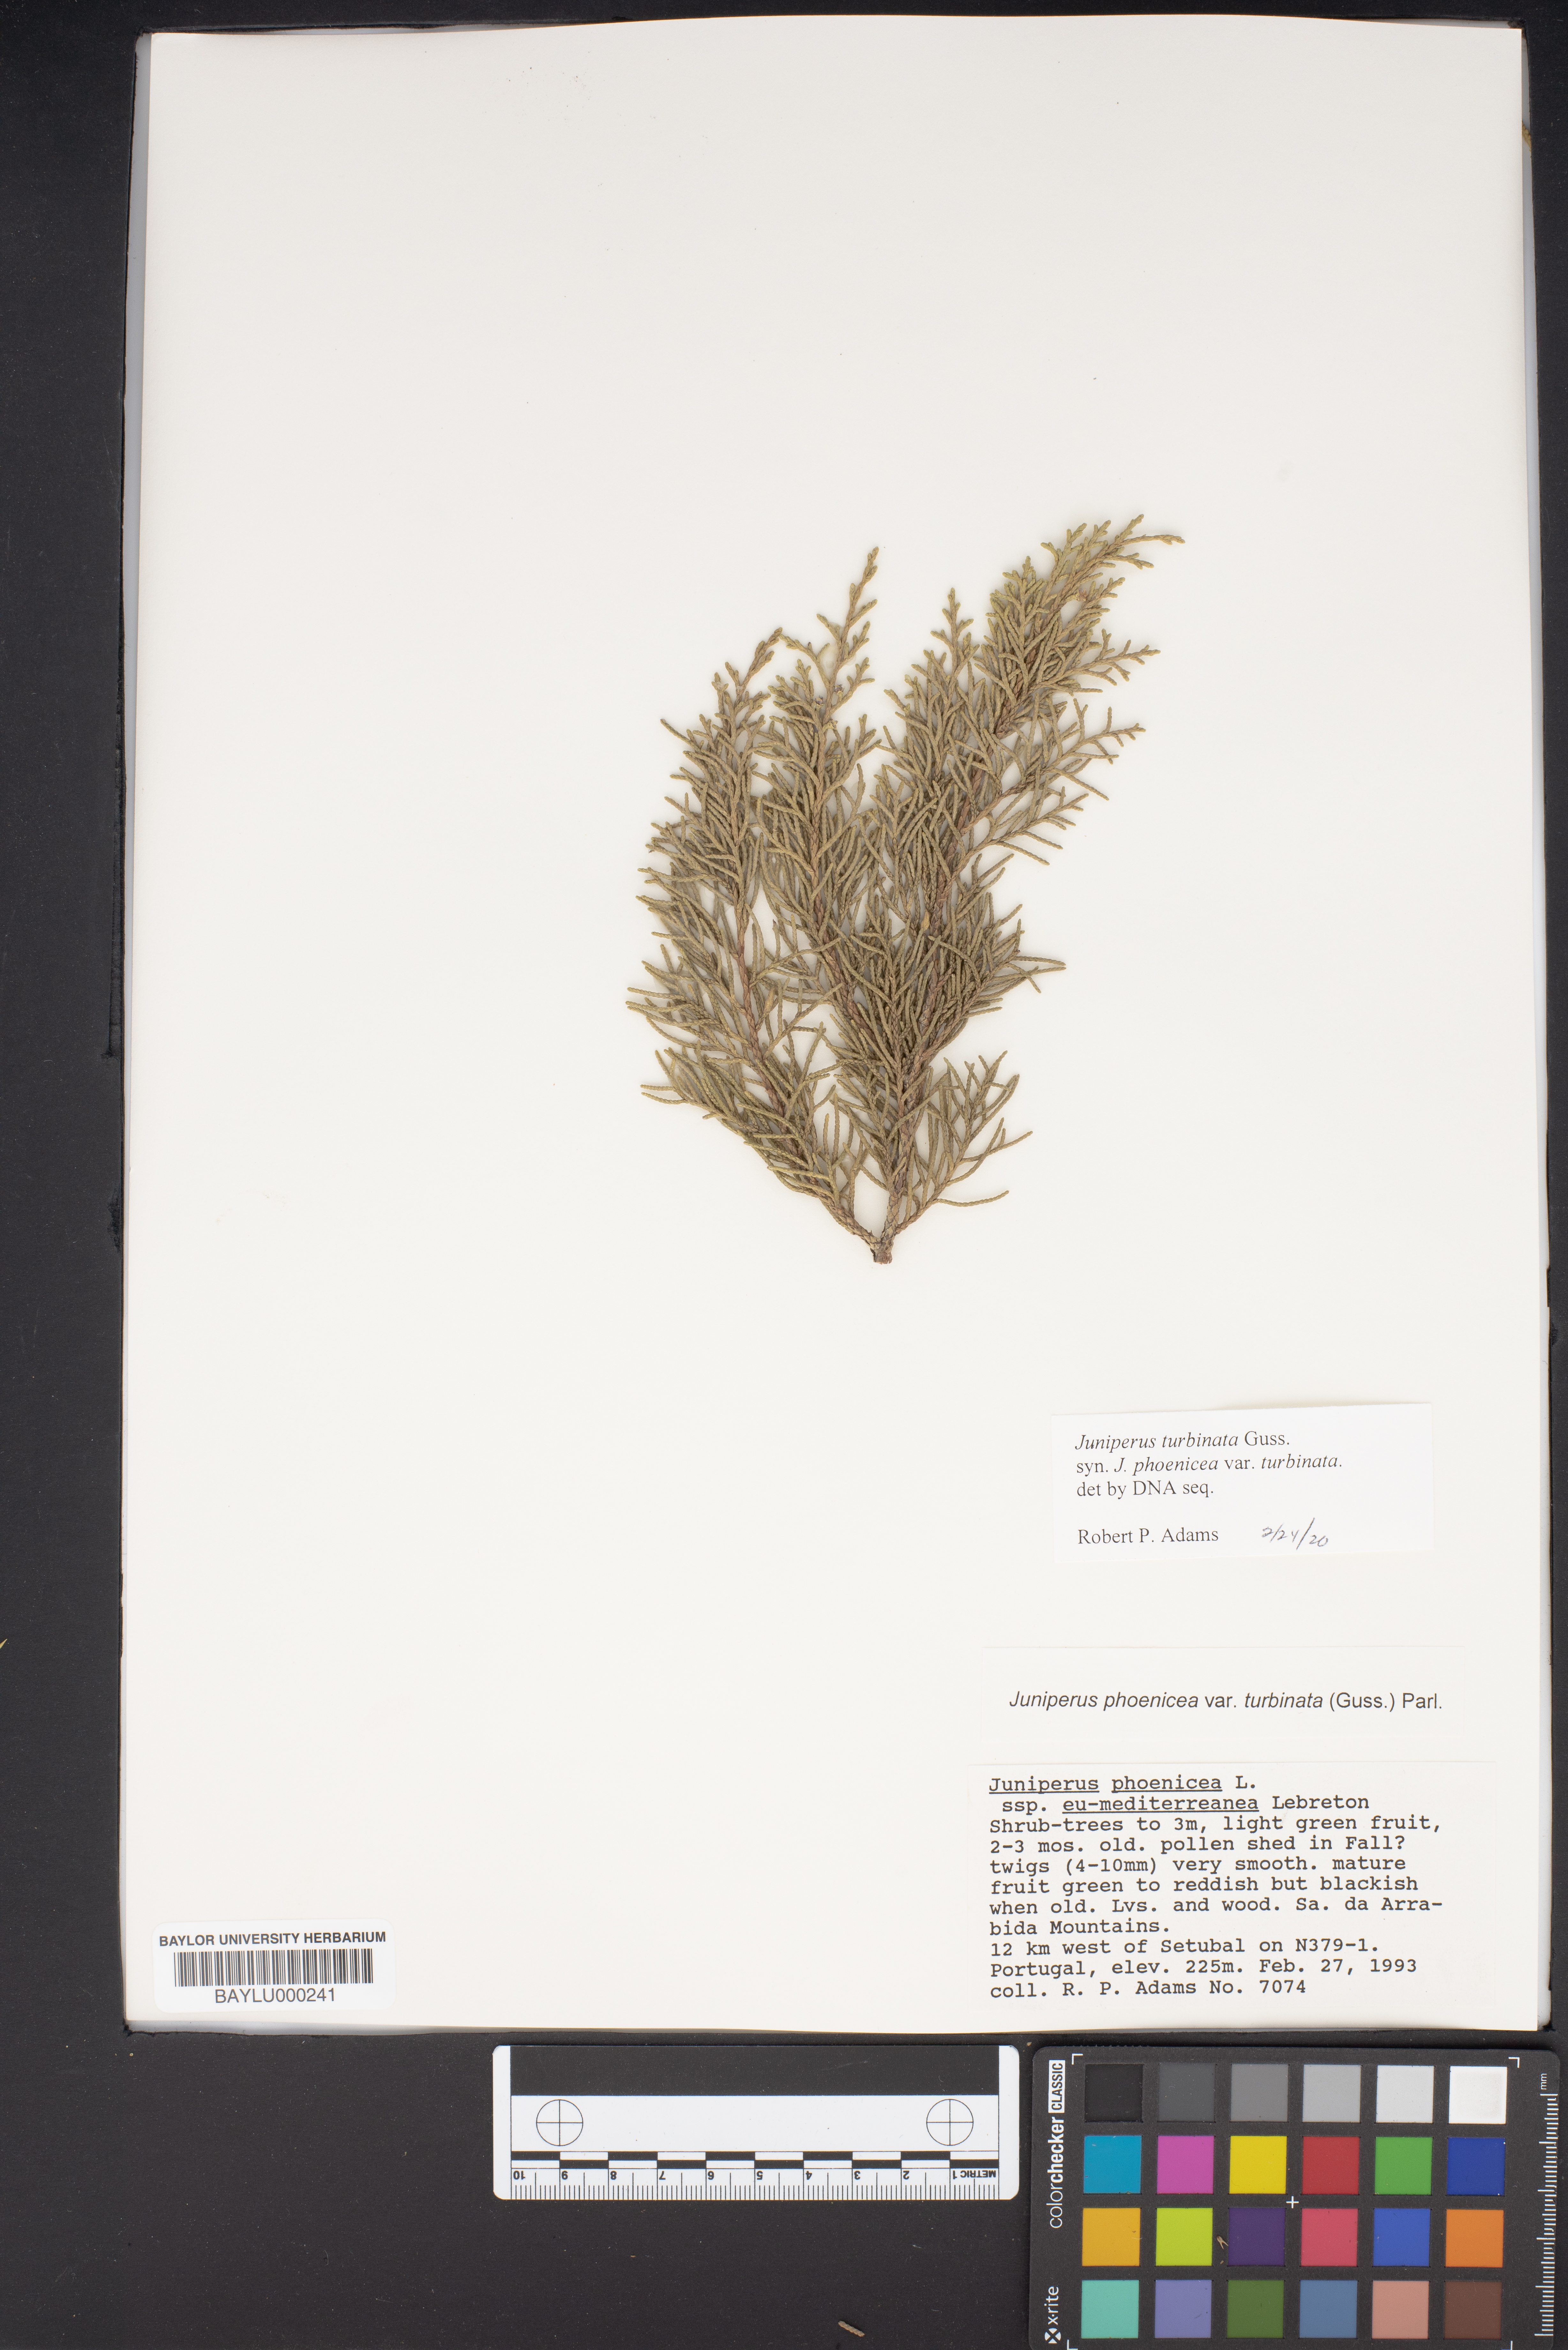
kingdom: Plantae
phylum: Tracheophyta
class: Pinopsida
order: Pinales
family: Cupressaceae
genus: Juniperus
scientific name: Juniperus phoenicea
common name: Phoenician juniper
